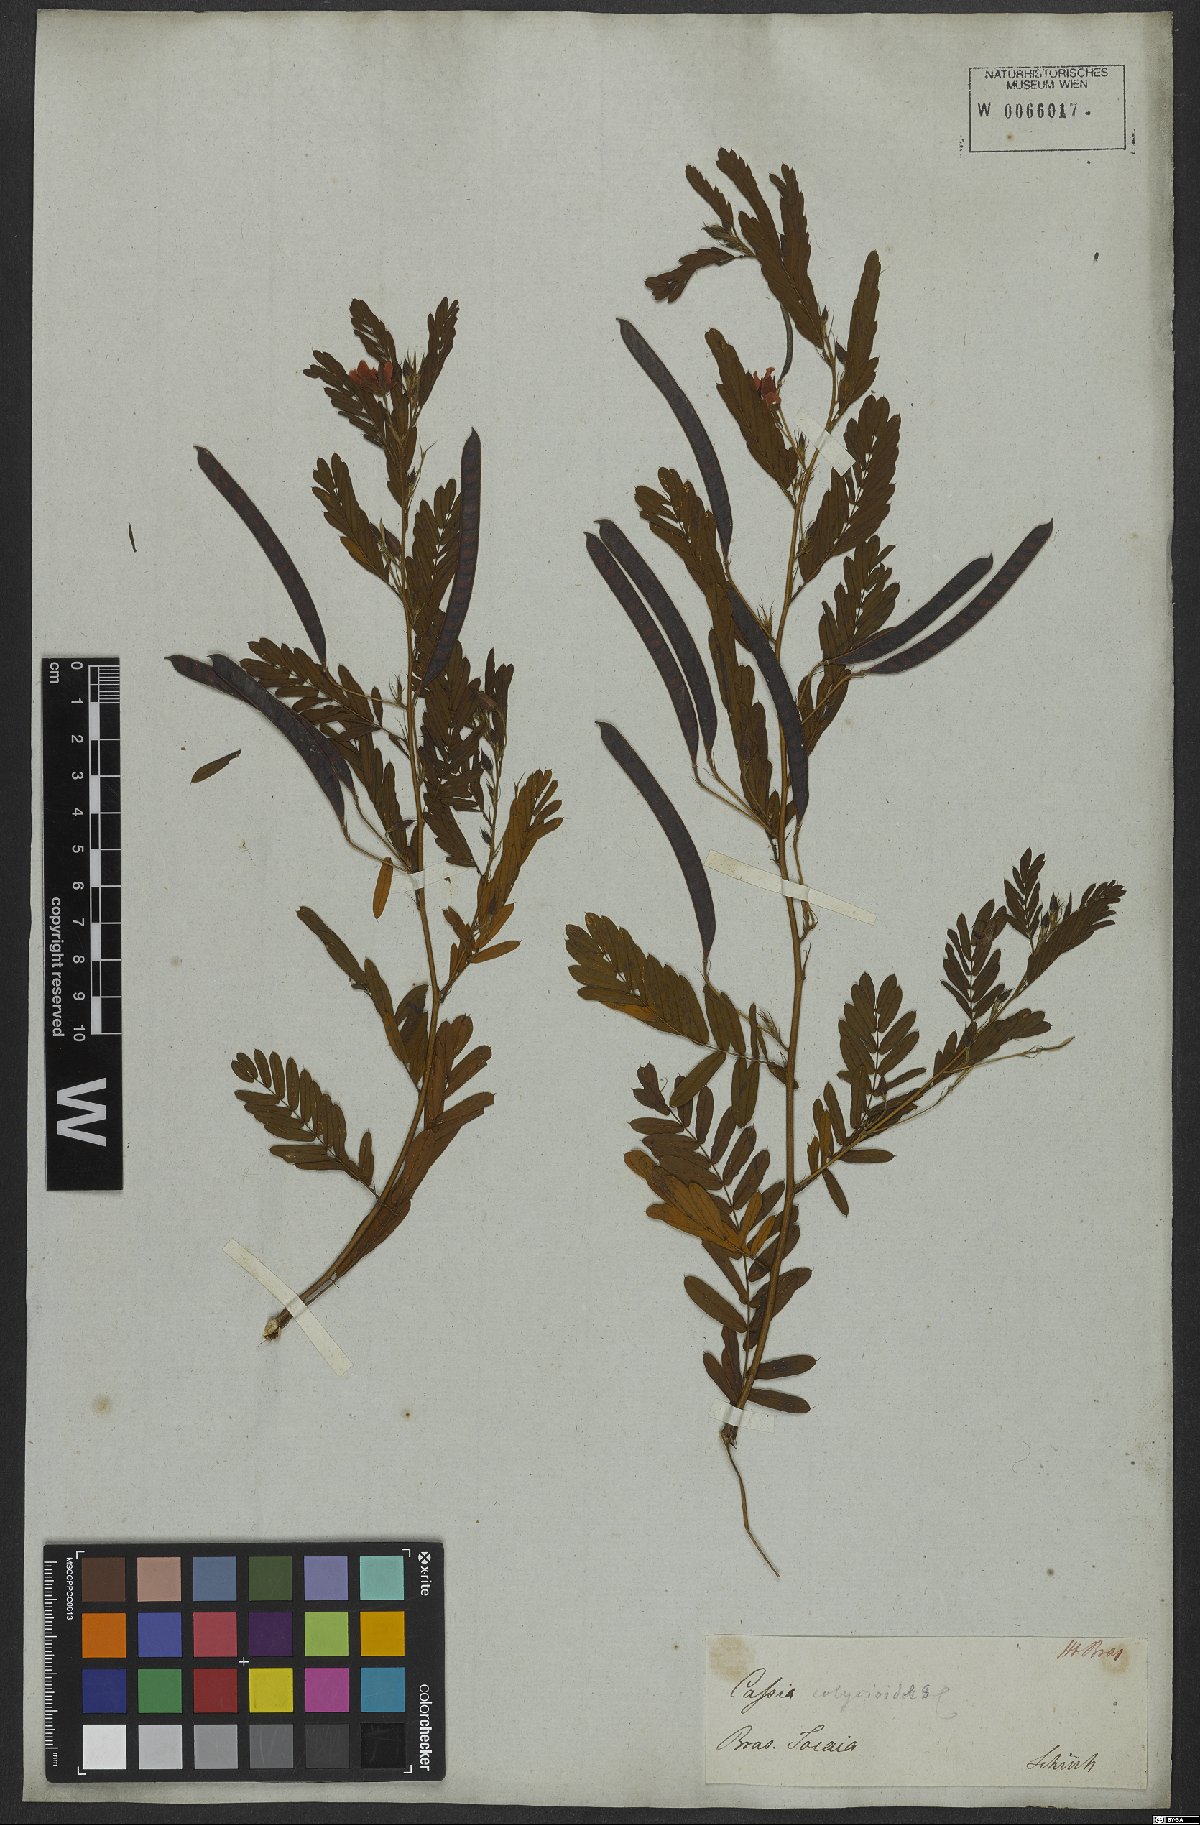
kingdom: Plantae
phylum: Tracheophyta
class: Magnoliopsida
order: Fabales
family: Fabaceae
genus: Chamaecrista
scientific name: Chamaecrista calycioides
